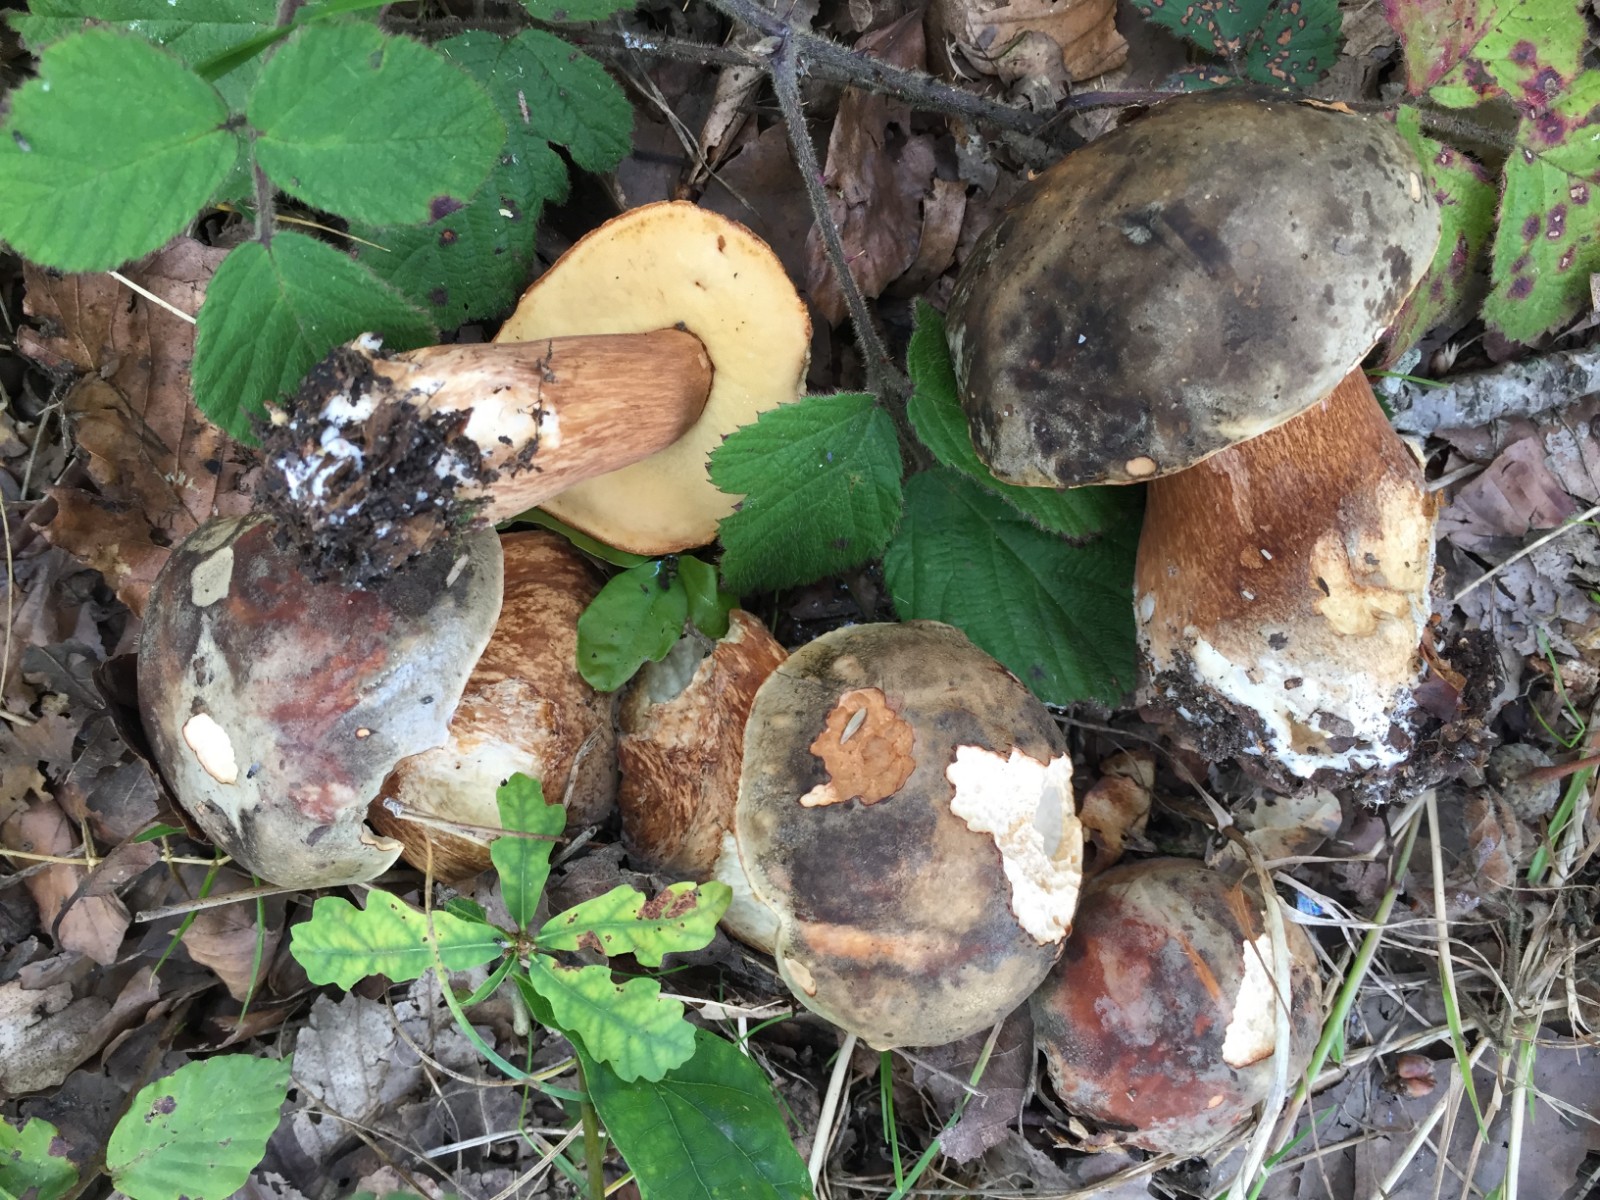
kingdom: Fungi
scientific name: Fungi
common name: bronze-rørhat
